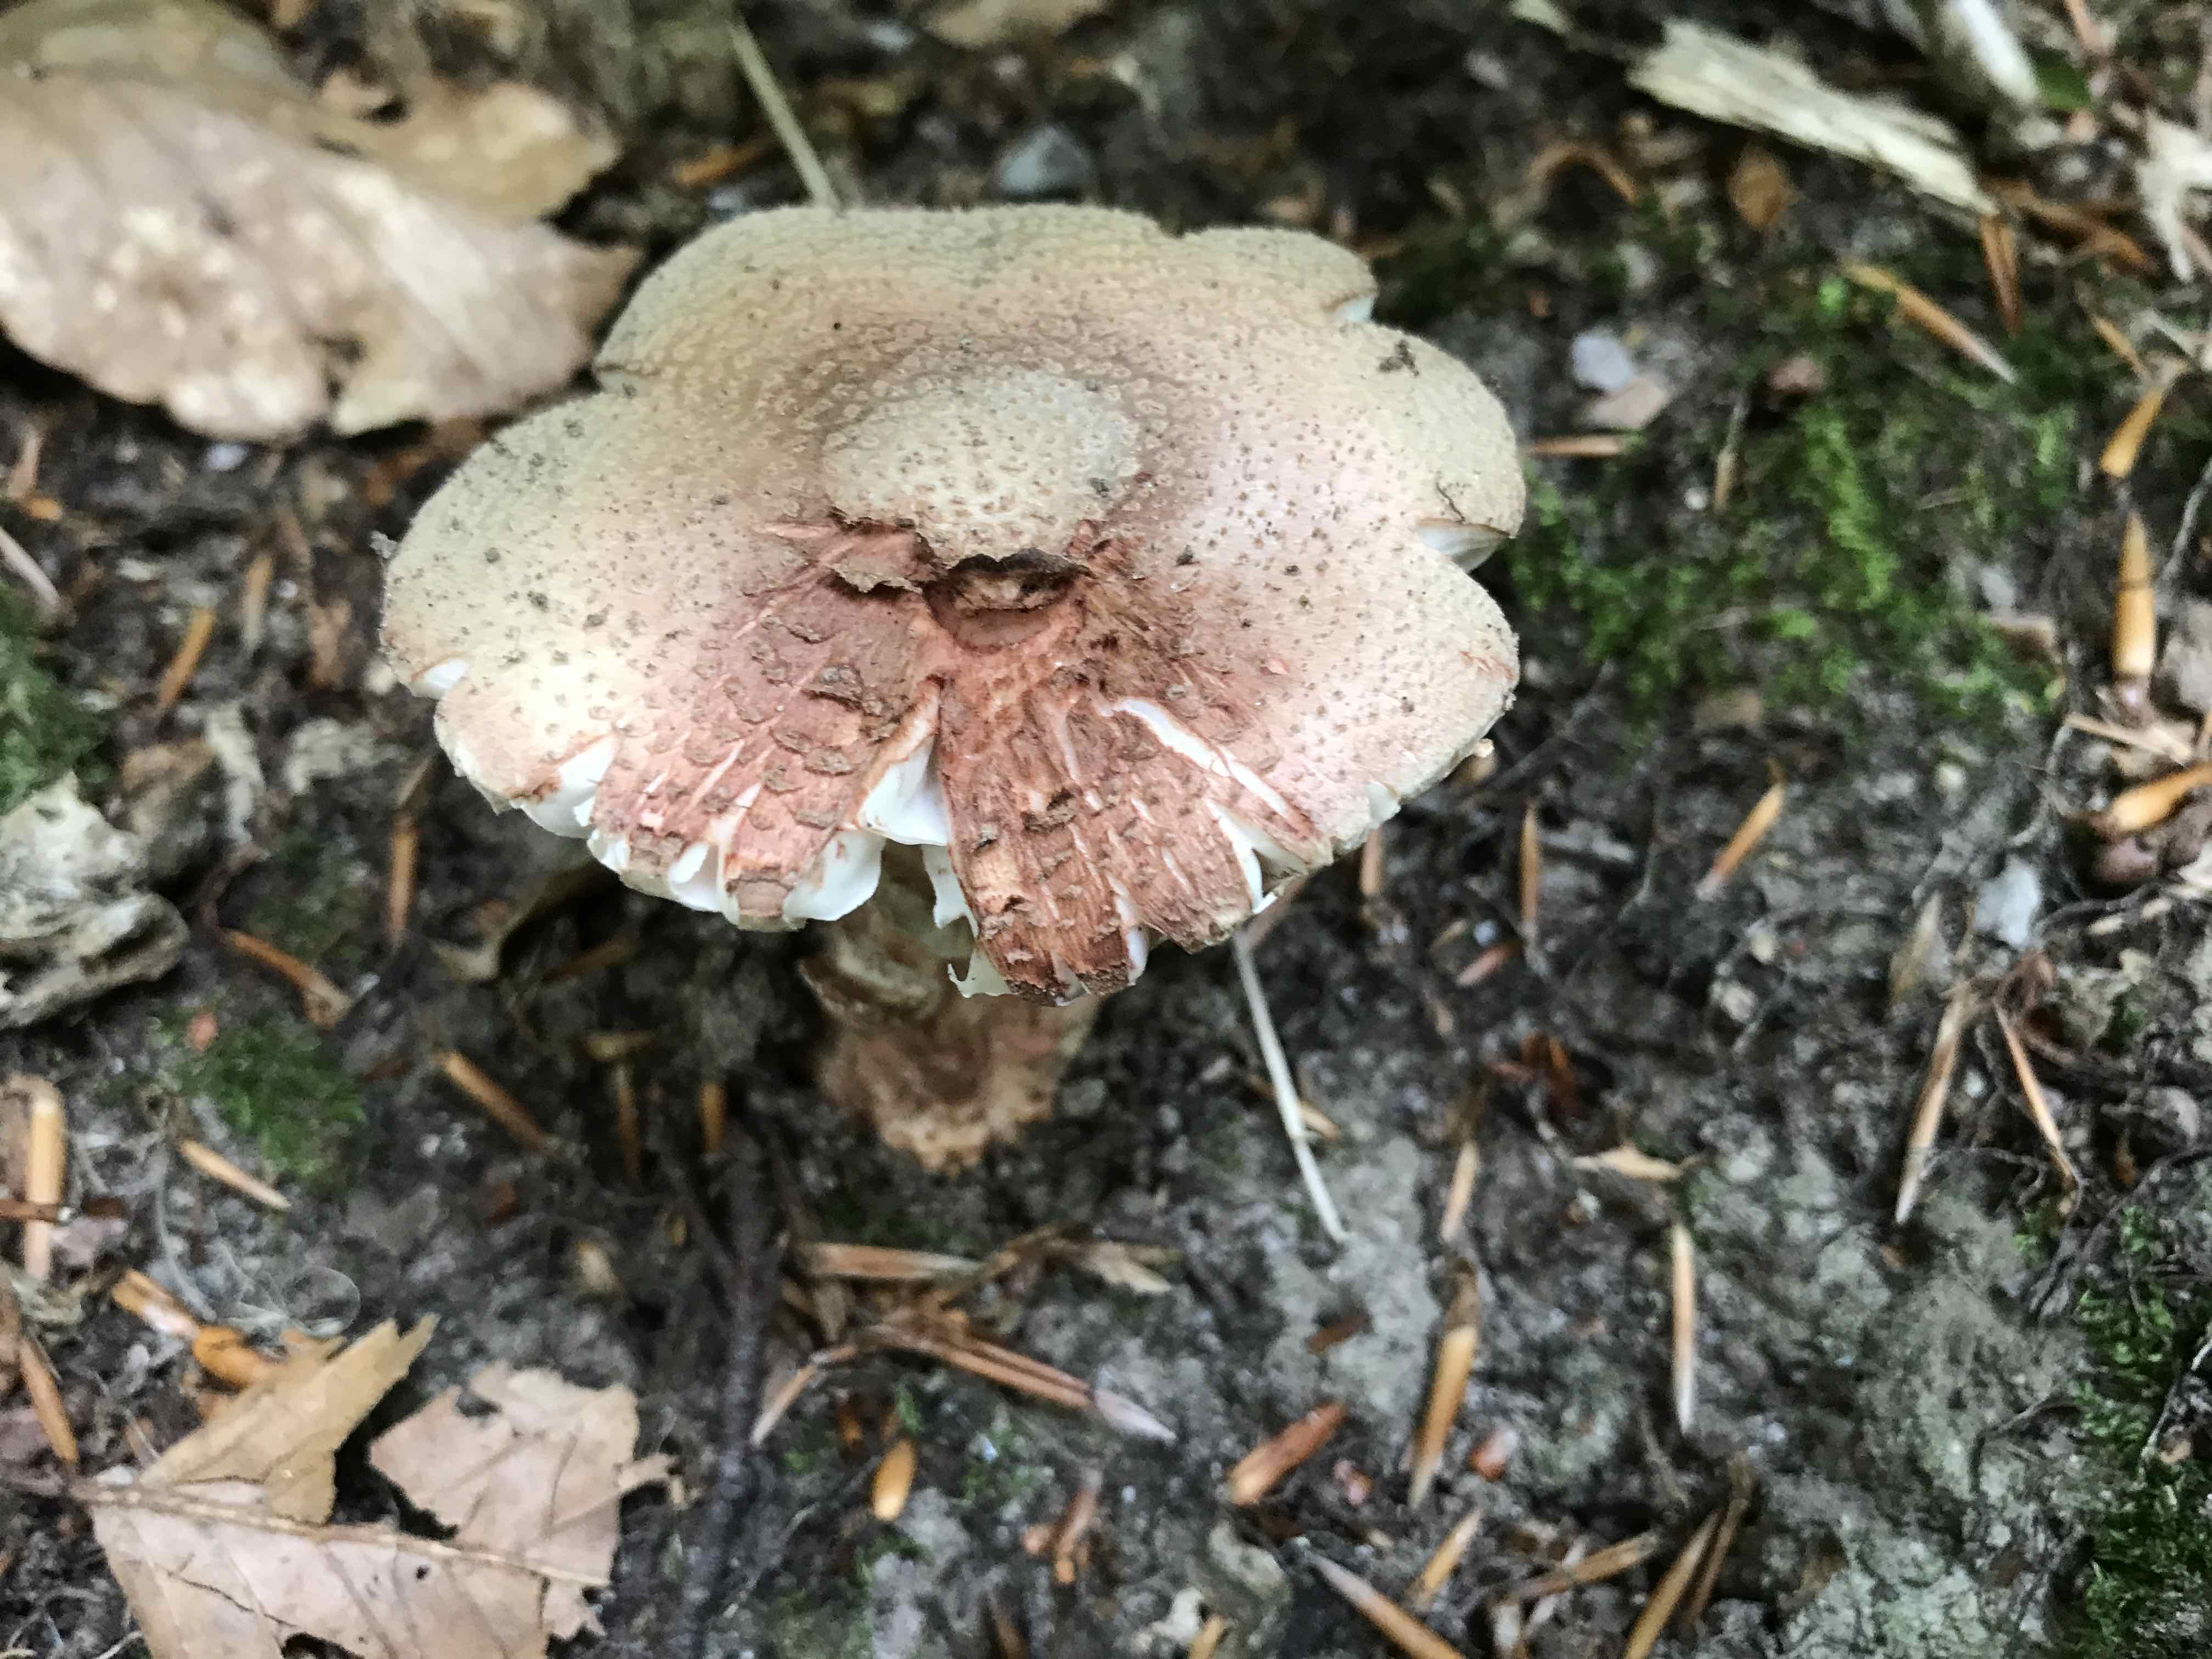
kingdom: Fungi
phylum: Basidiomycota
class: Agaricomycetes
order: Agaricales
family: Amanitaceae
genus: Amanita
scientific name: Amanita rubescens
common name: rødmende fluesvamp
